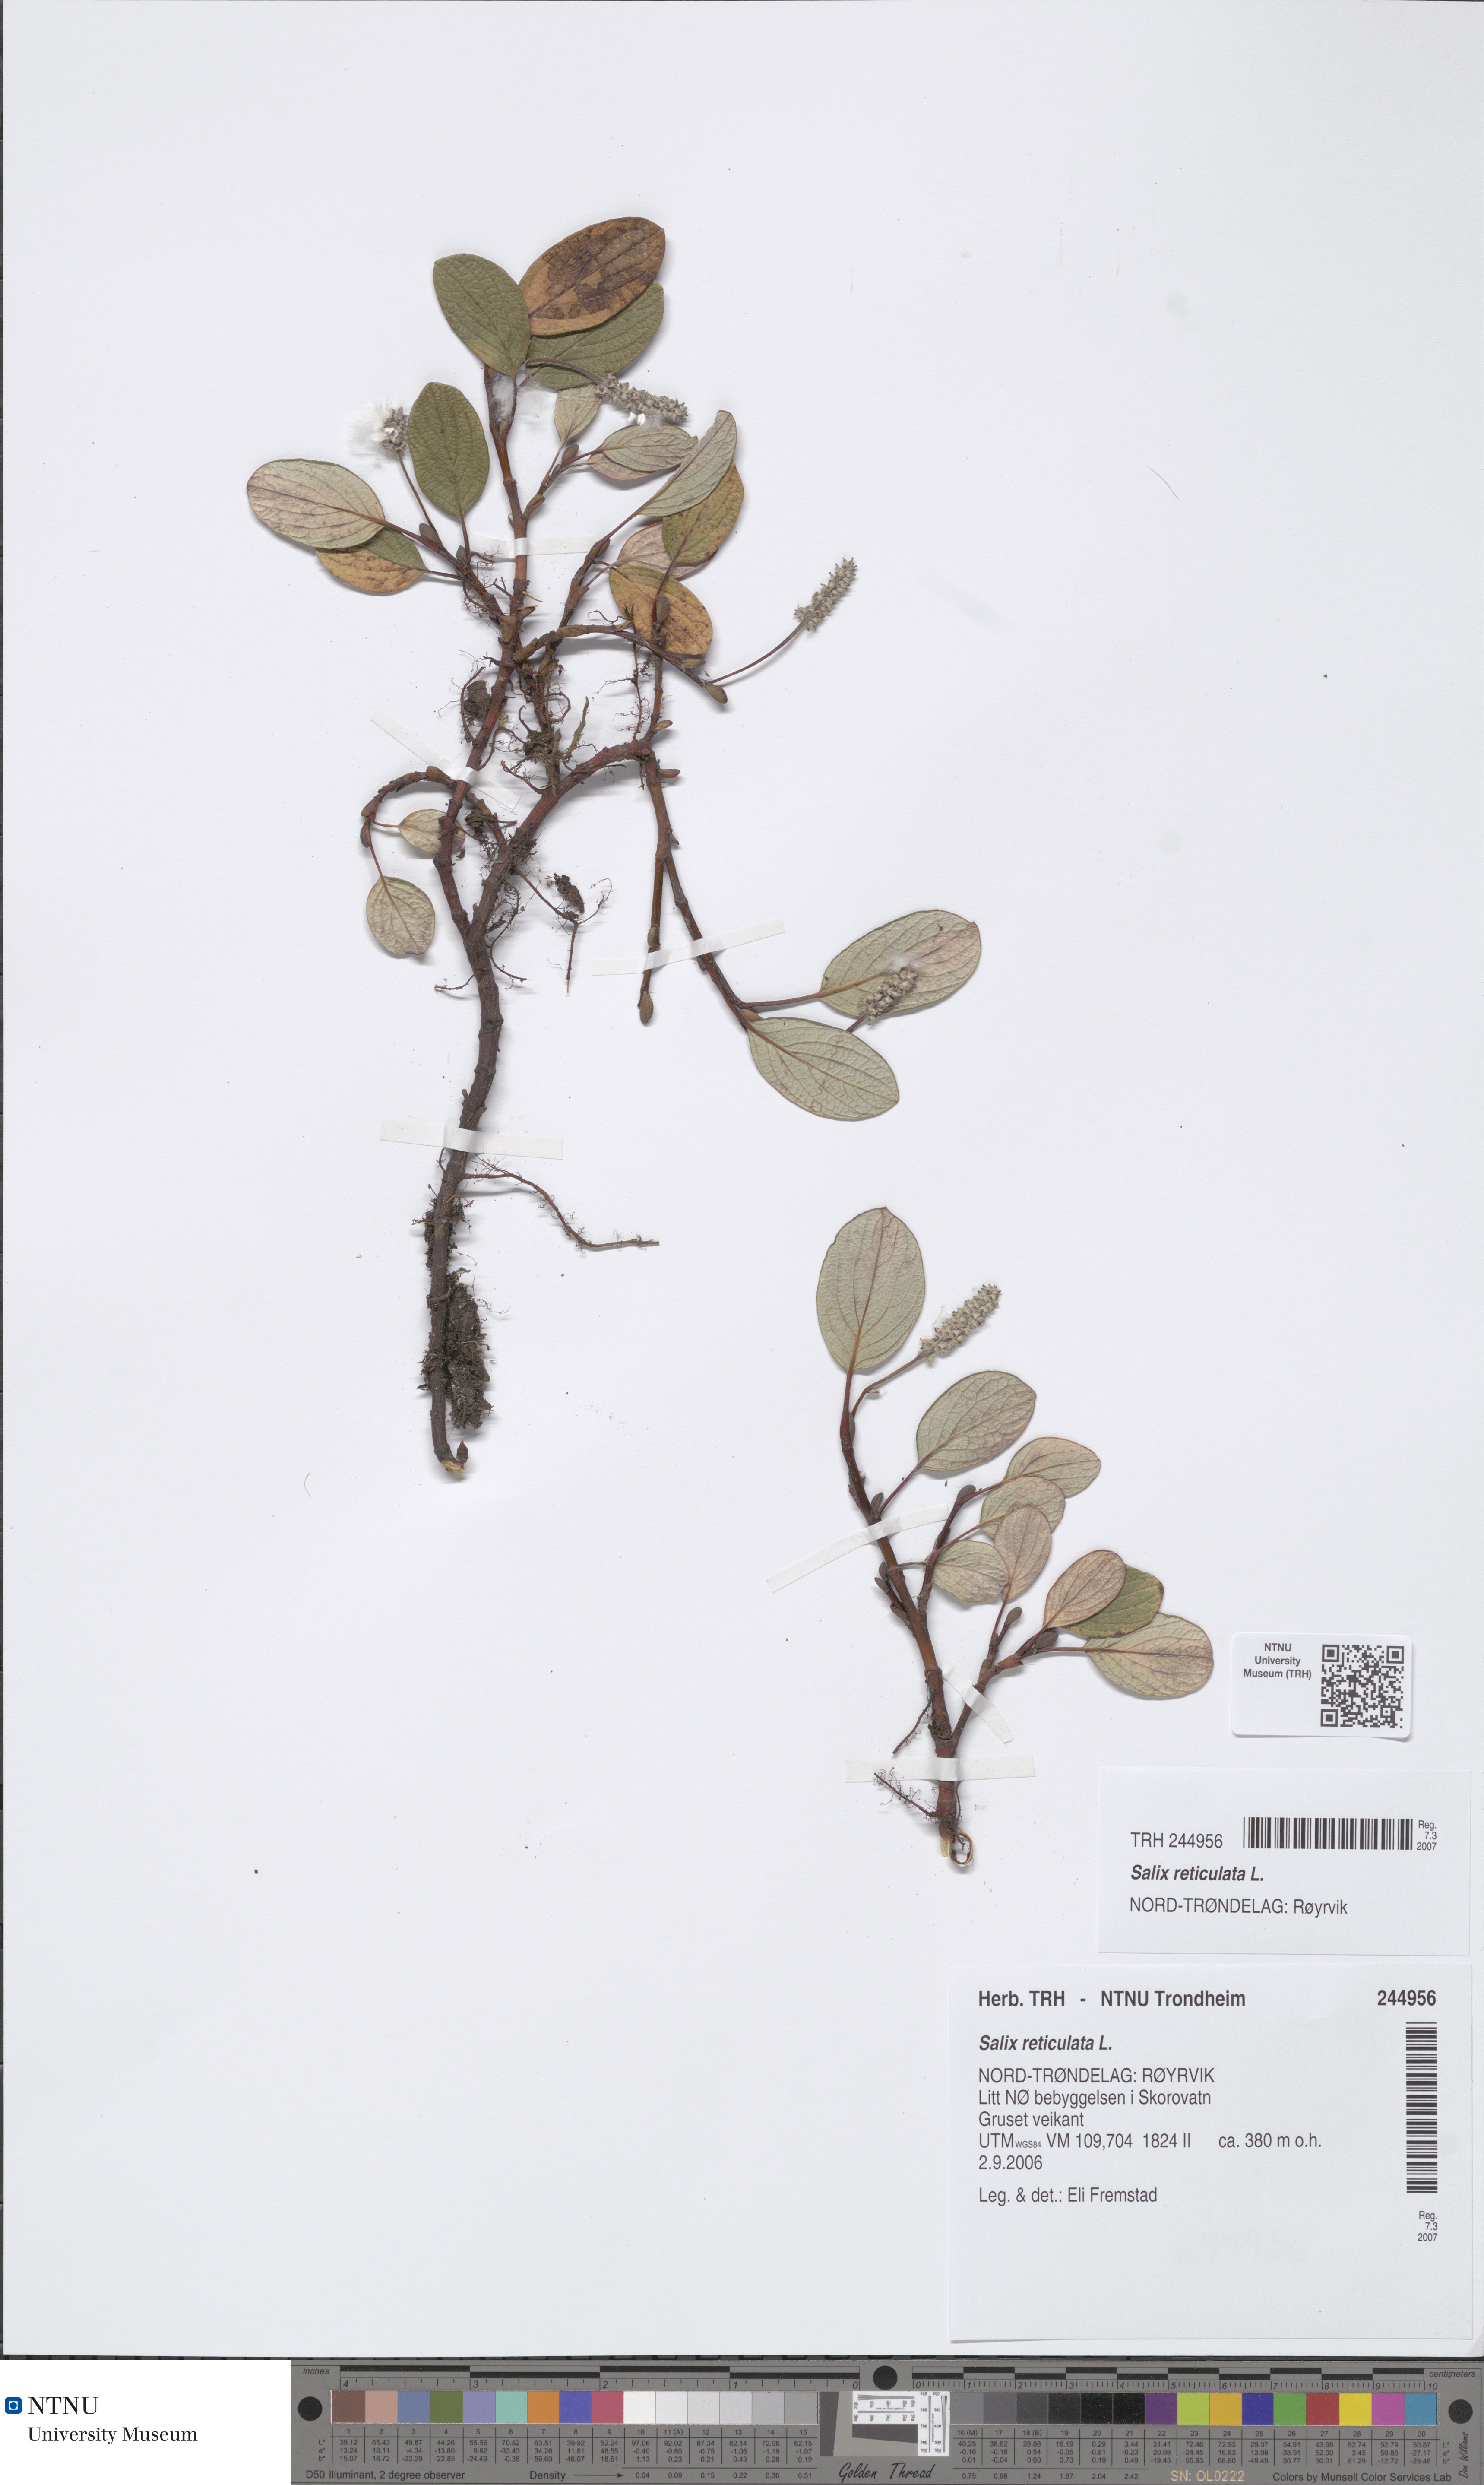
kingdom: Plantae
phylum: Tracheophyta
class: Magnoliopsida
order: Malpighiales
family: Salicaceae
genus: Salix
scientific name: Salix reticulata
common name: Net-leaved willow
